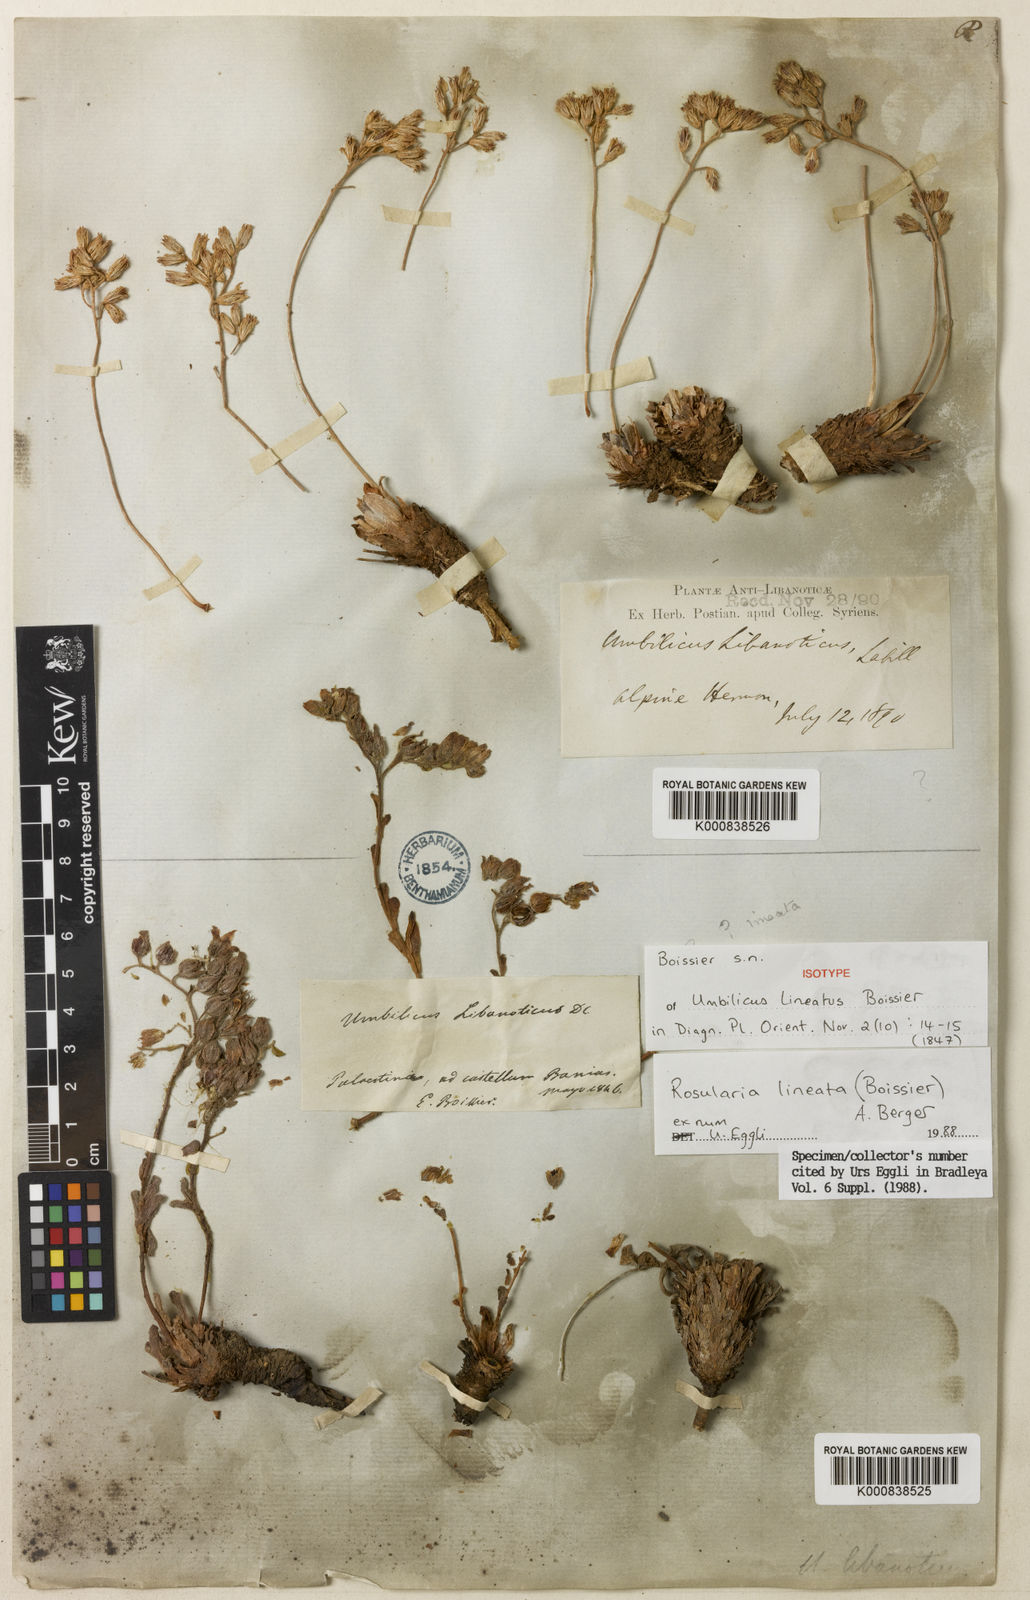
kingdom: Plantae
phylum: Tracheophyta
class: Magnoliopsida
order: Saxifragales
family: Crassulaceae
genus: Rosularia
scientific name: Rosularia lineata
